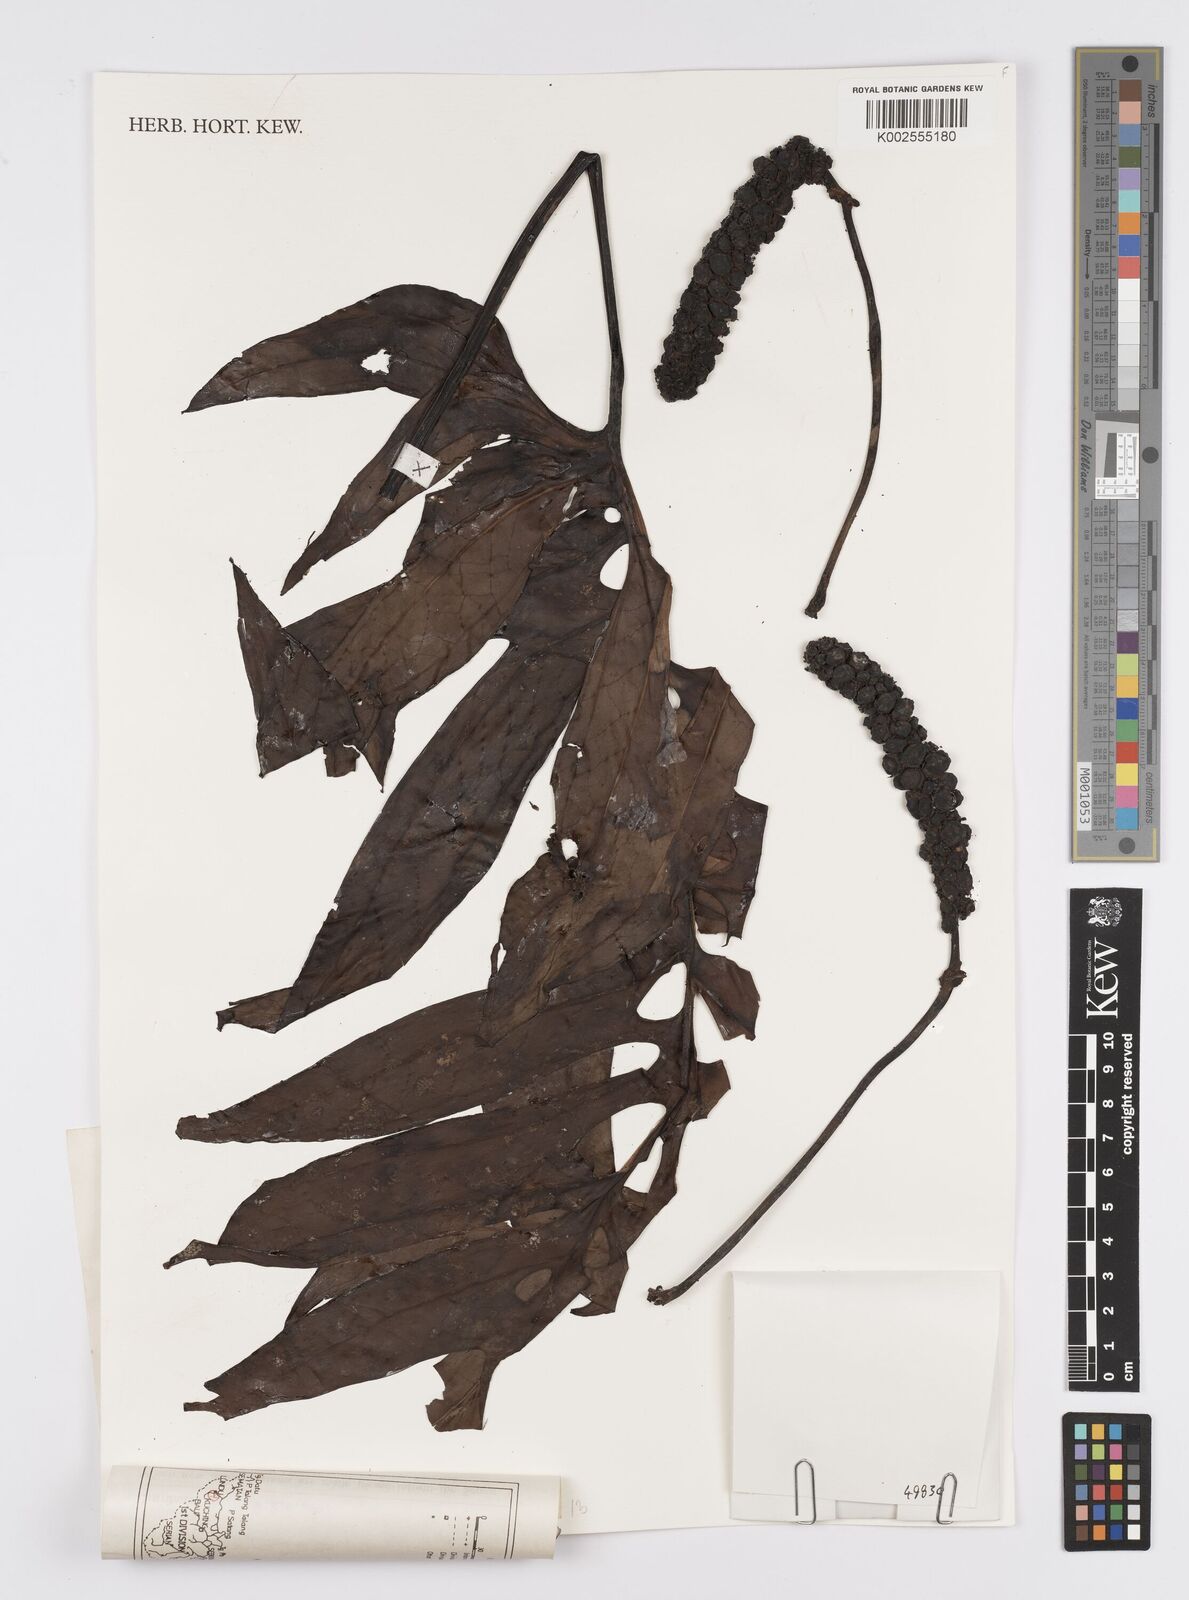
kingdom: Plantae
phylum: Tracheophyta
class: Liliopsida
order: Alismatales
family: Araceae
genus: Amydrium
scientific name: Amydrium
